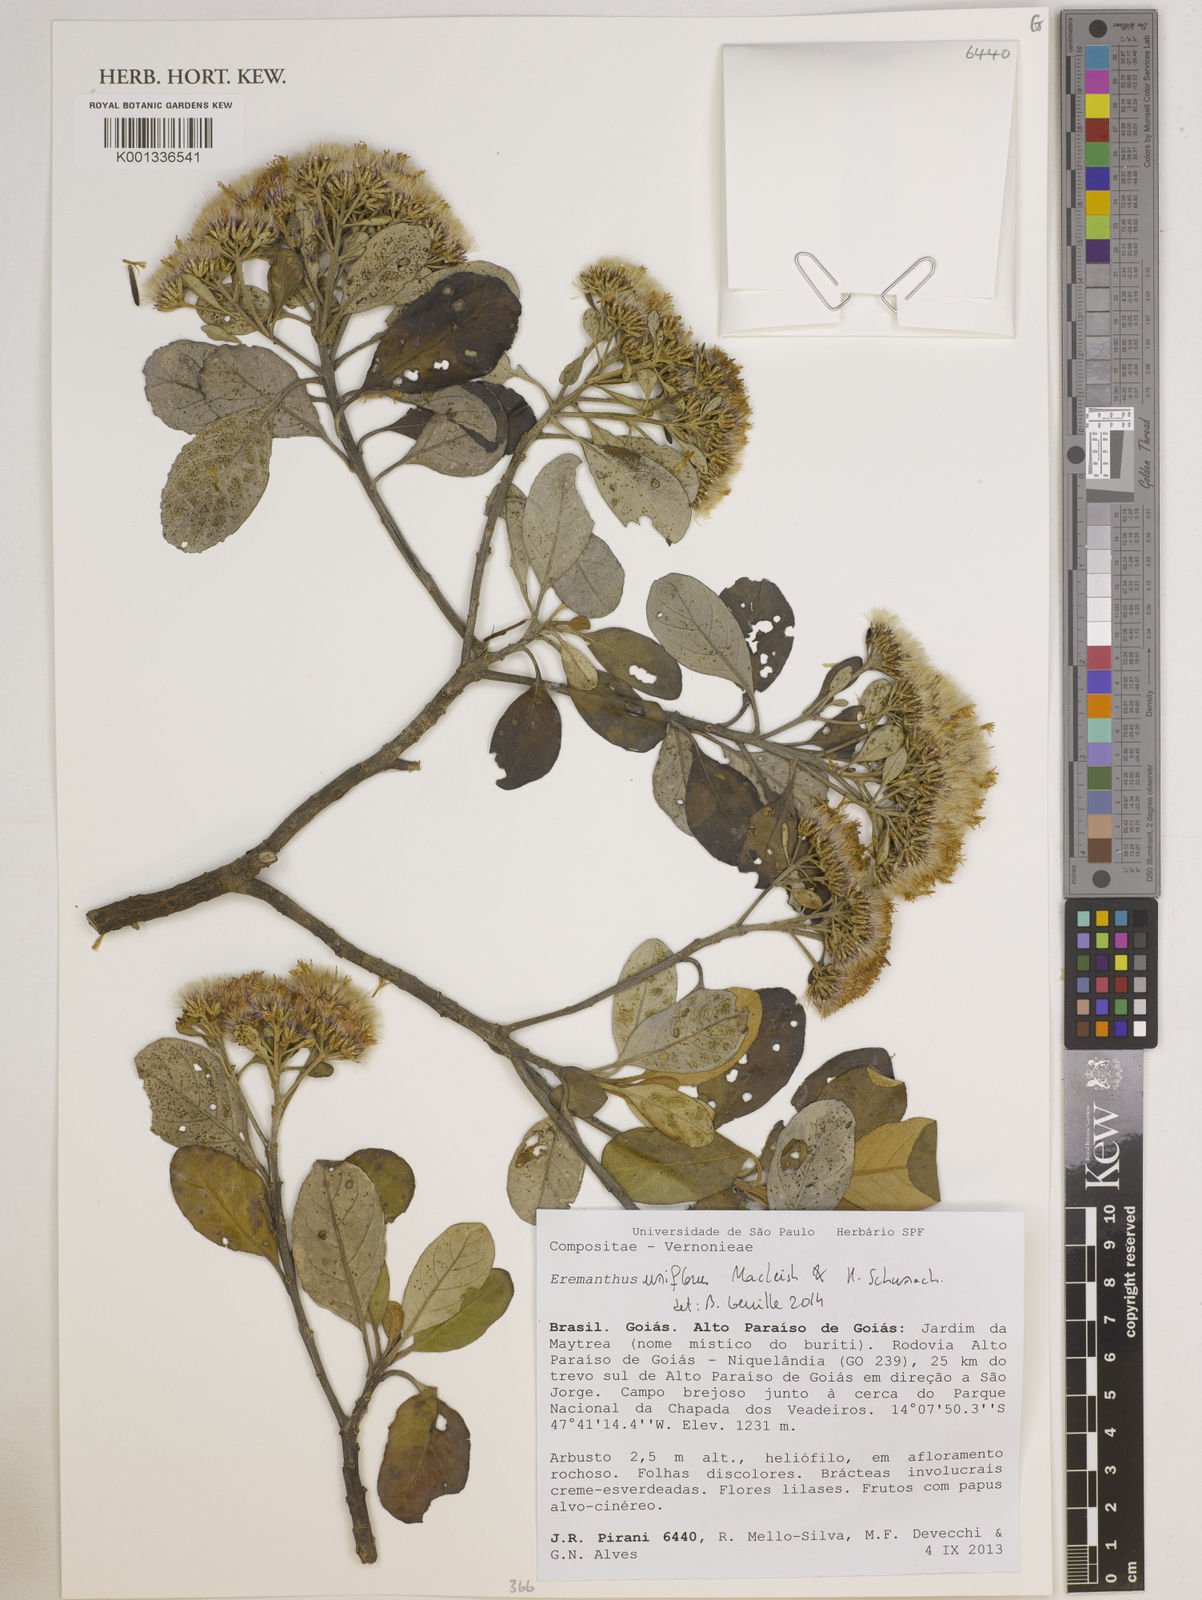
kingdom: Plantae
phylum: Tracheophyta
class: Magnoliopsida
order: Asterales
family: Asteraceae
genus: Eremanthus
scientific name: Eremanthus uniflorus
